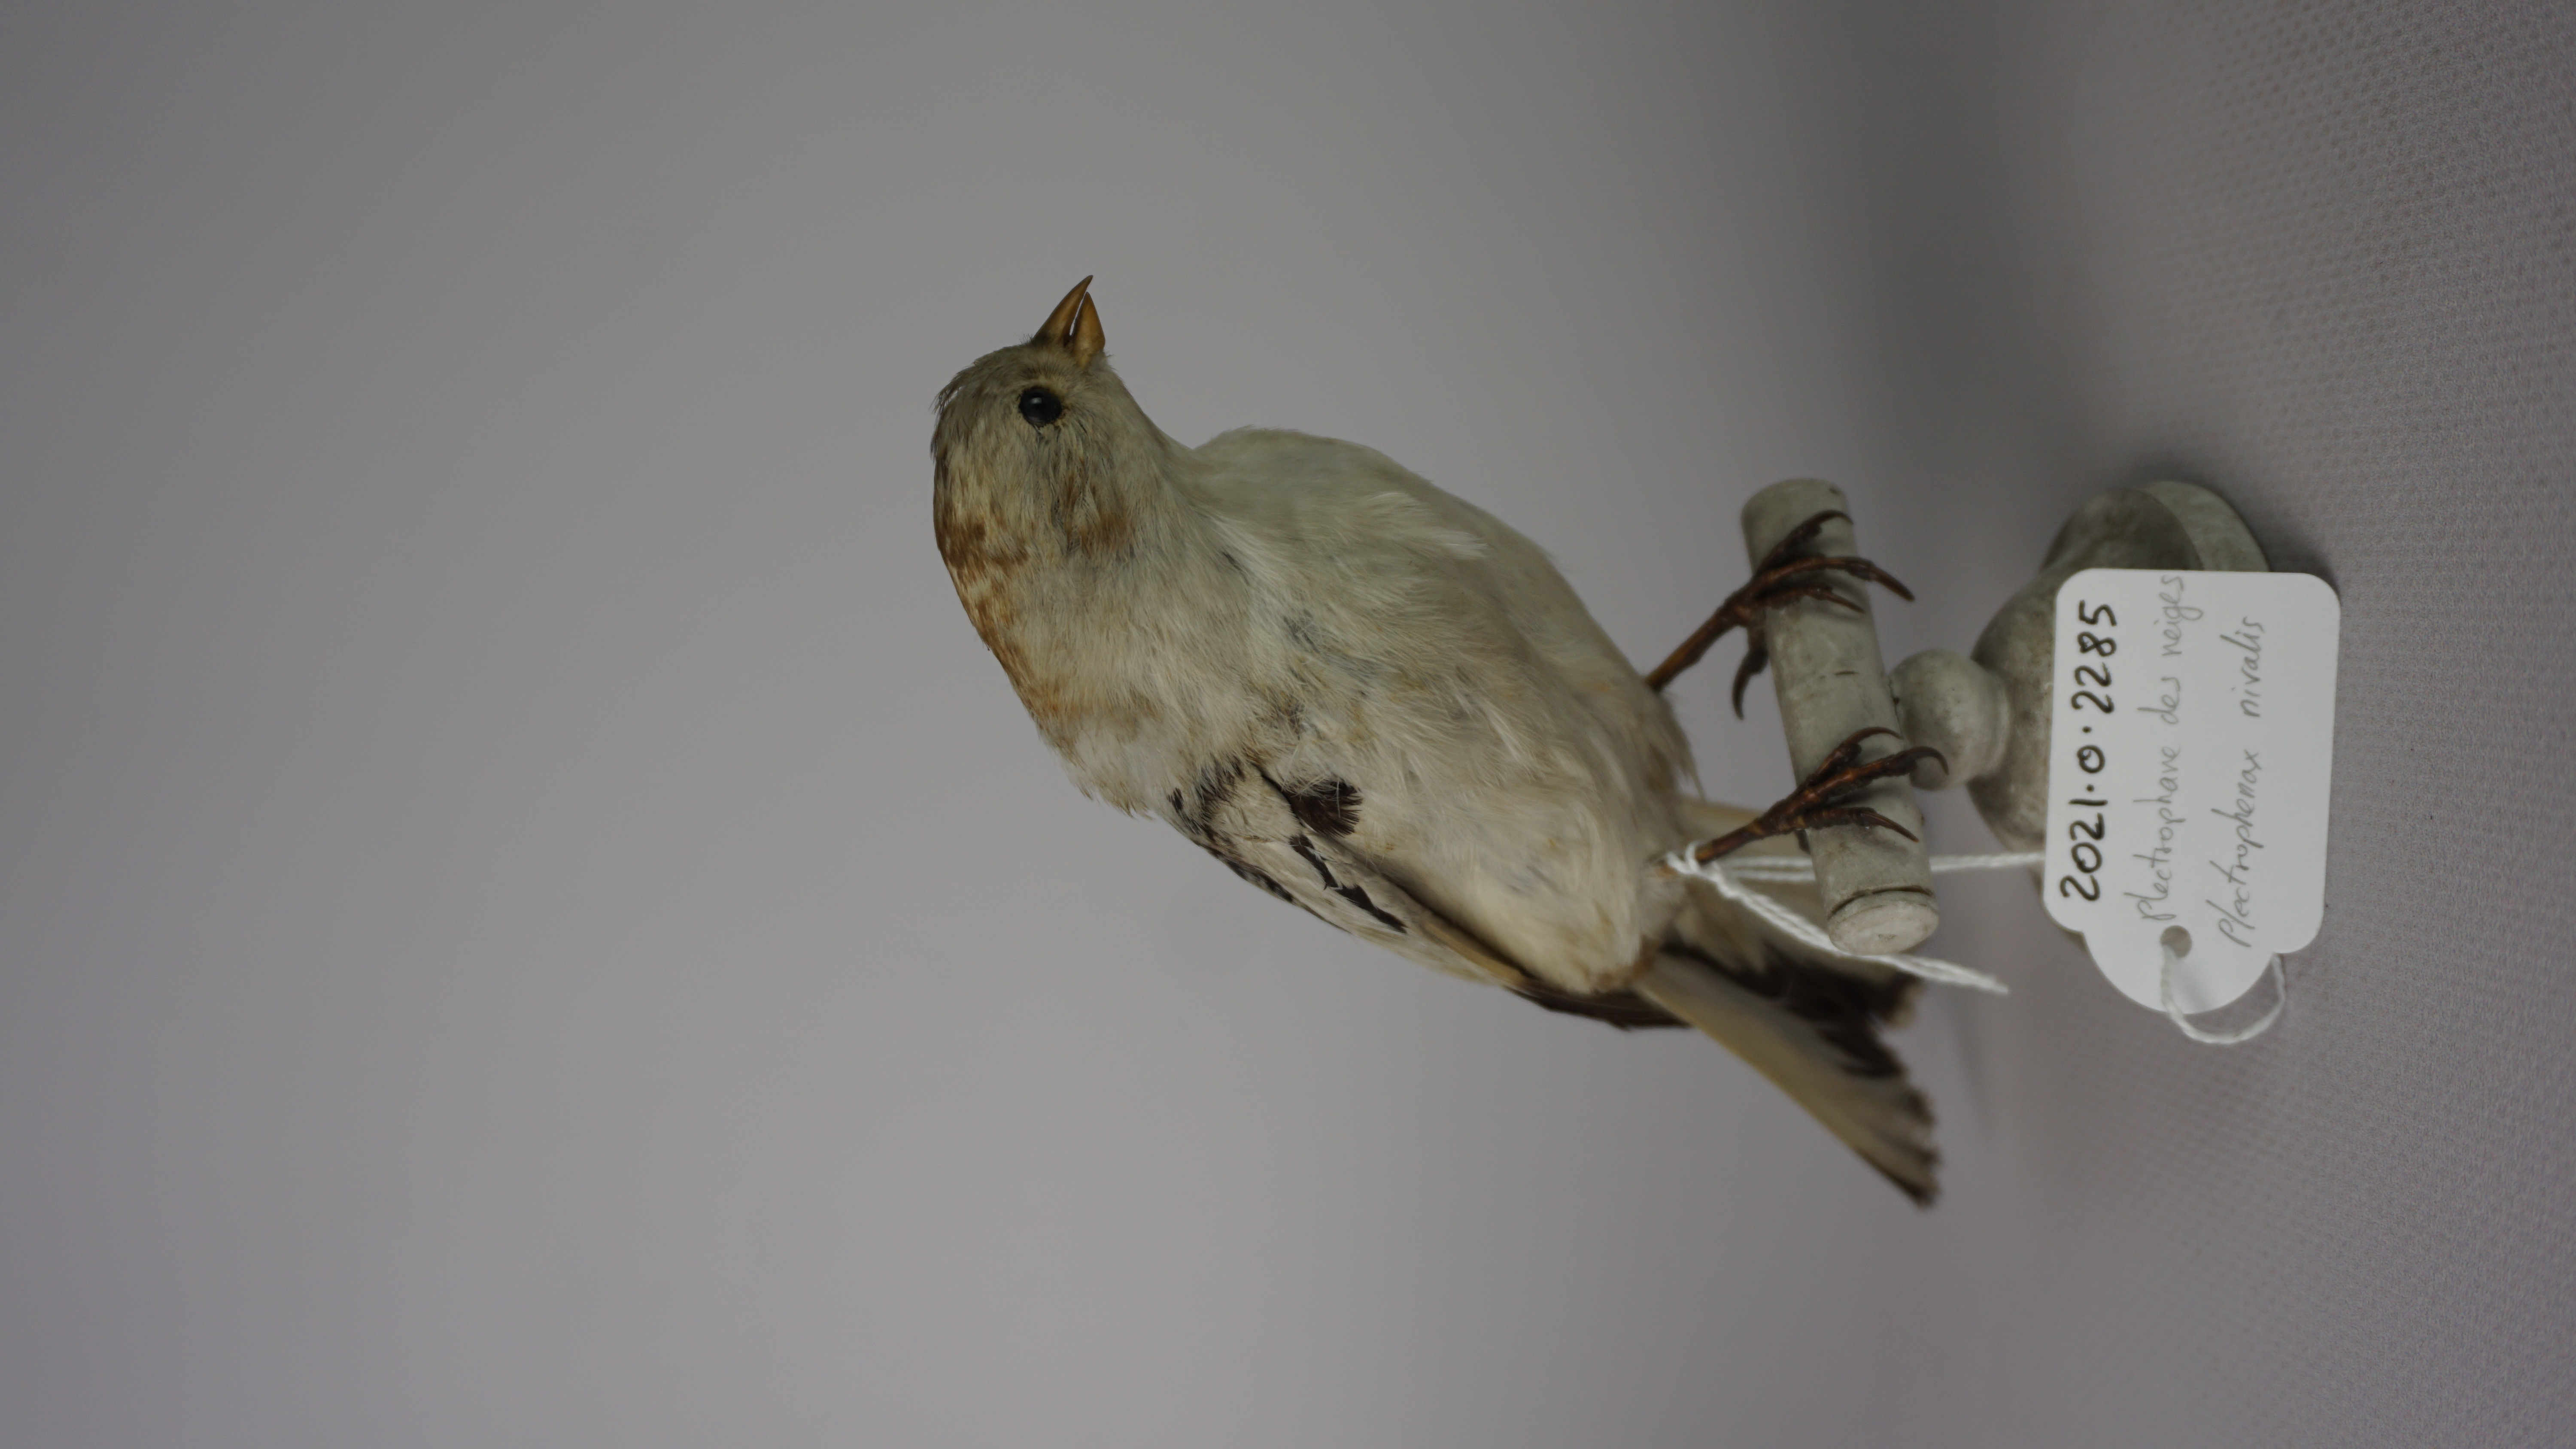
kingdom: Animalia
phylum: Chordata
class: Aves
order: Passeriformes
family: Calcariidae
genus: Plectrophenax
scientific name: Plectrophenax nivalis
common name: Snow bunting
